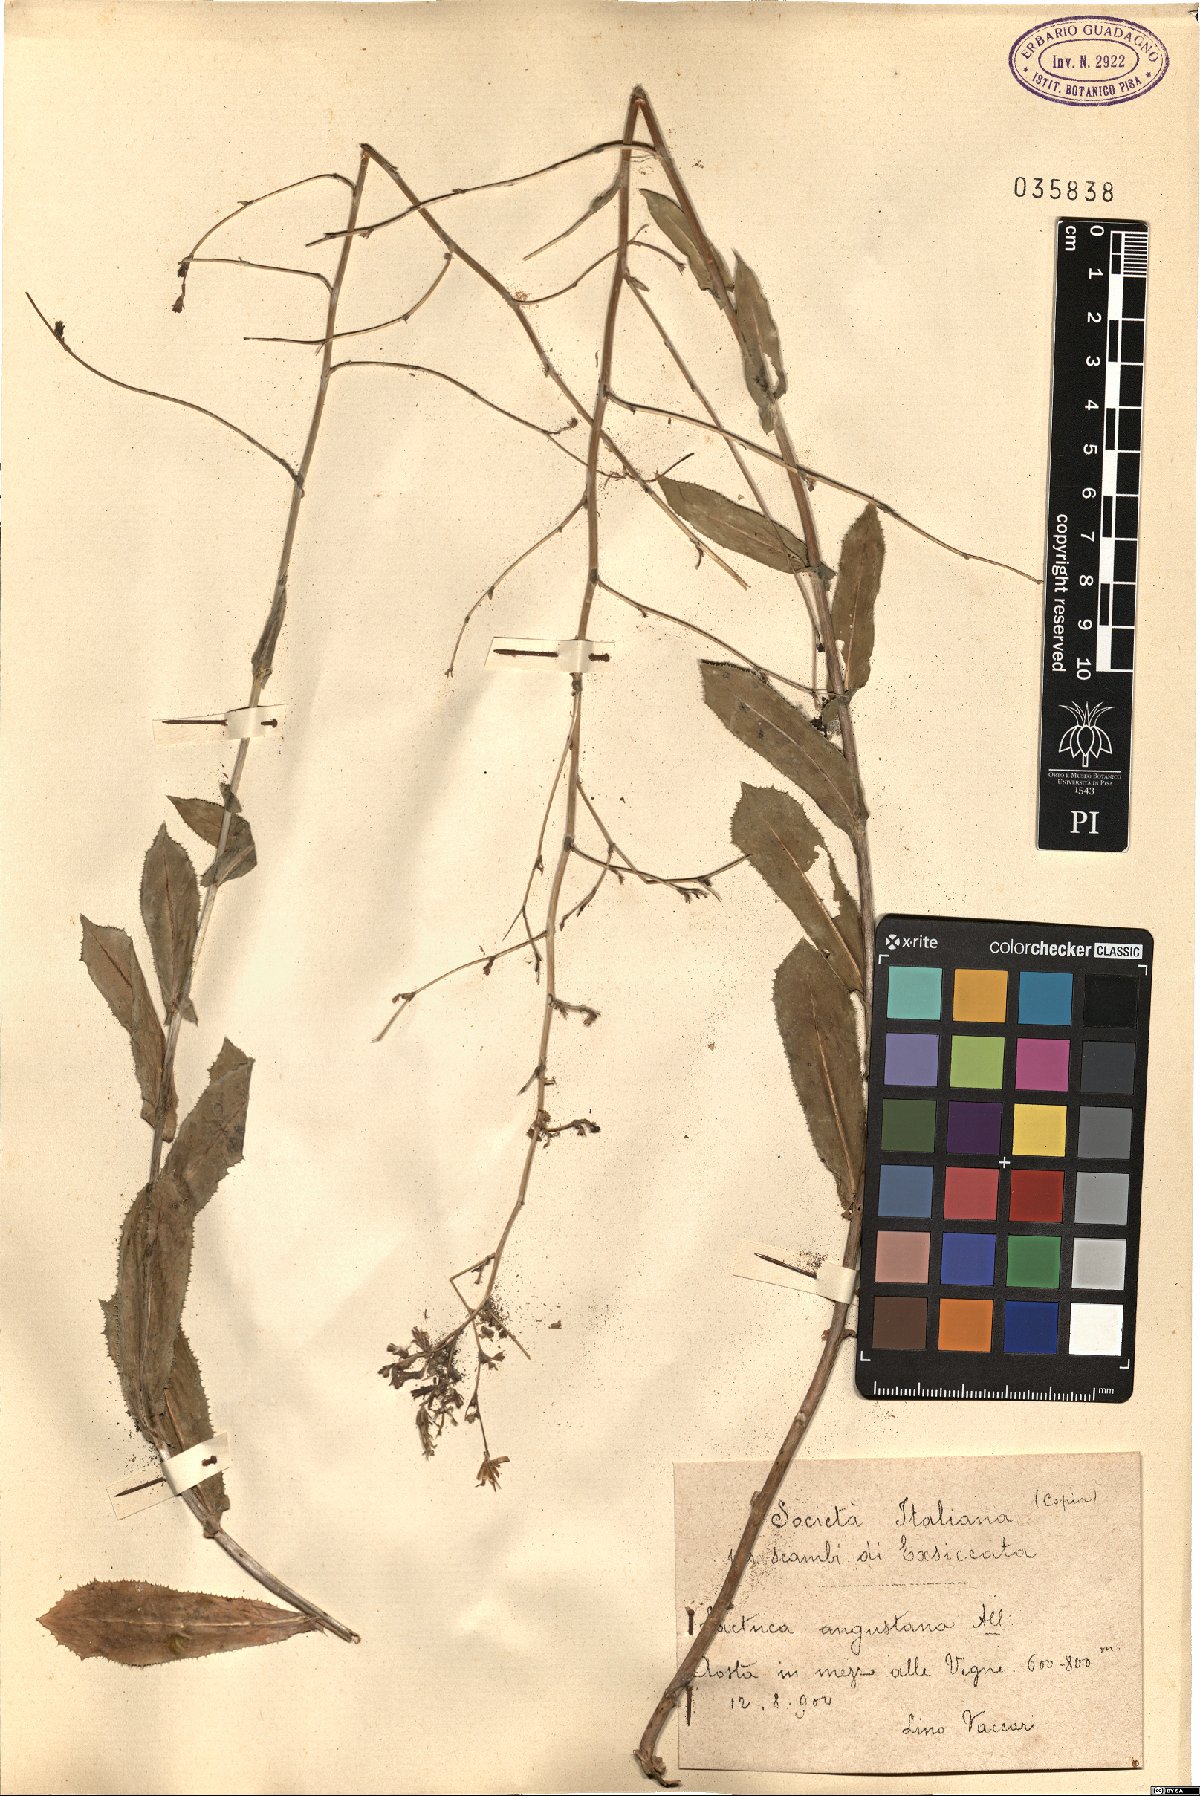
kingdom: Plantae
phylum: Tracheophyta
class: Magnoliopsida
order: Asterales
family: Asteraceae
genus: Lactuca
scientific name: Lactuca serriola
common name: Prickly lettuce
